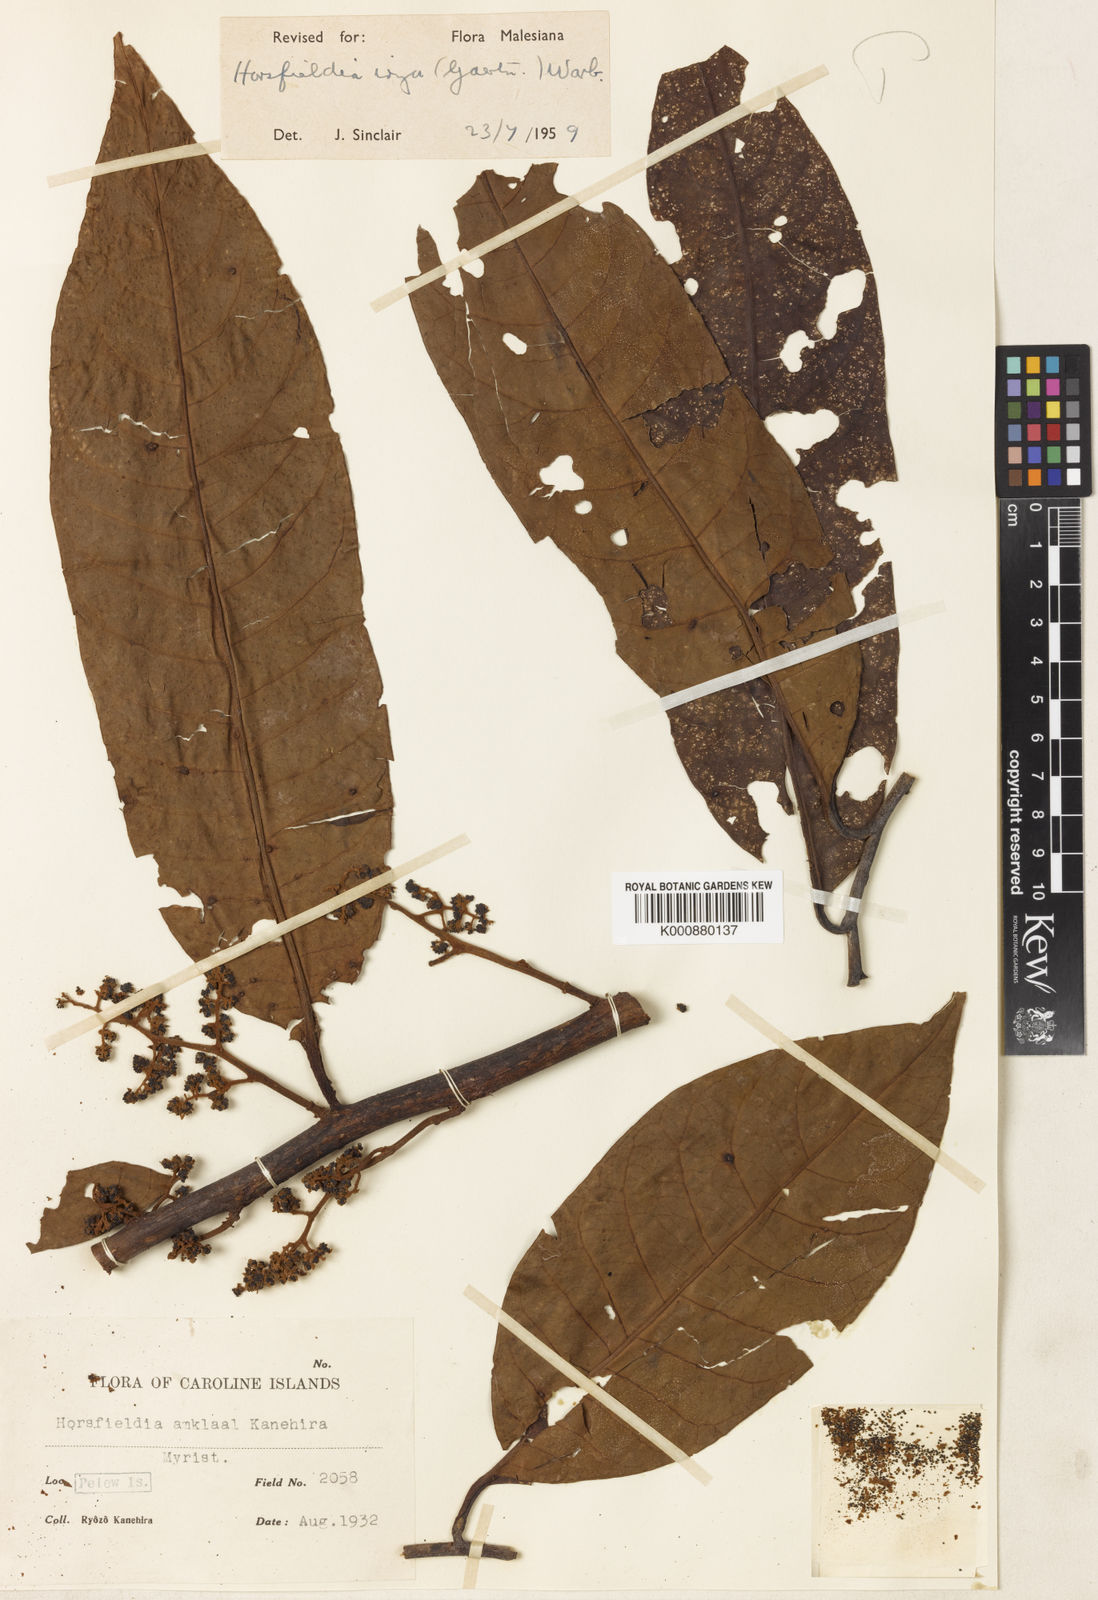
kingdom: Plantae
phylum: Tracheophyta
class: Magnoliopsida
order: Magnoliales
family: Myristicaceae
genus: Horsfieldia
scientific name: Horsfieldia irya
